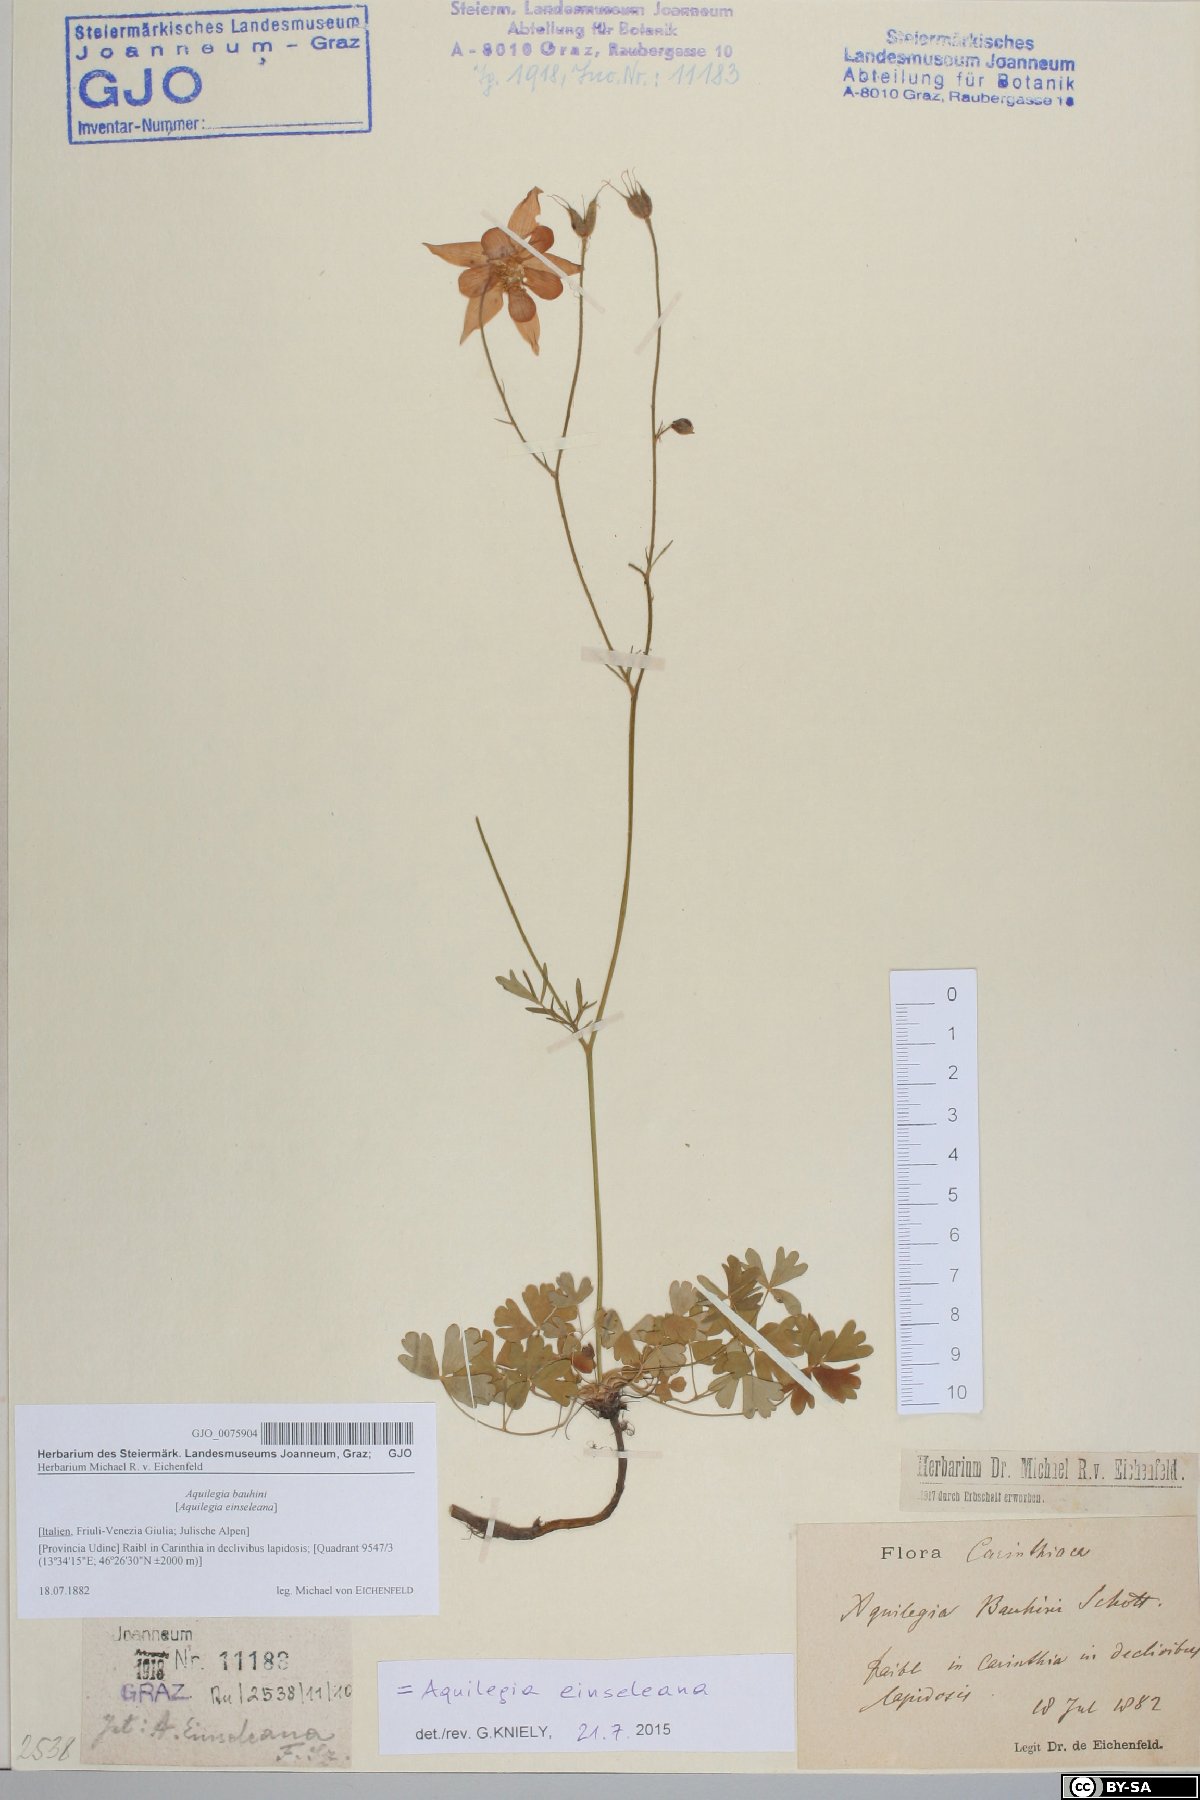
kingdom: Plantae
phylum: Tracheophyta
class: Magnoliopsida
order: Ranunculales
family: Ranunculaceae
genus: Aquilegia
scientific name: Aquilegia einseleana
